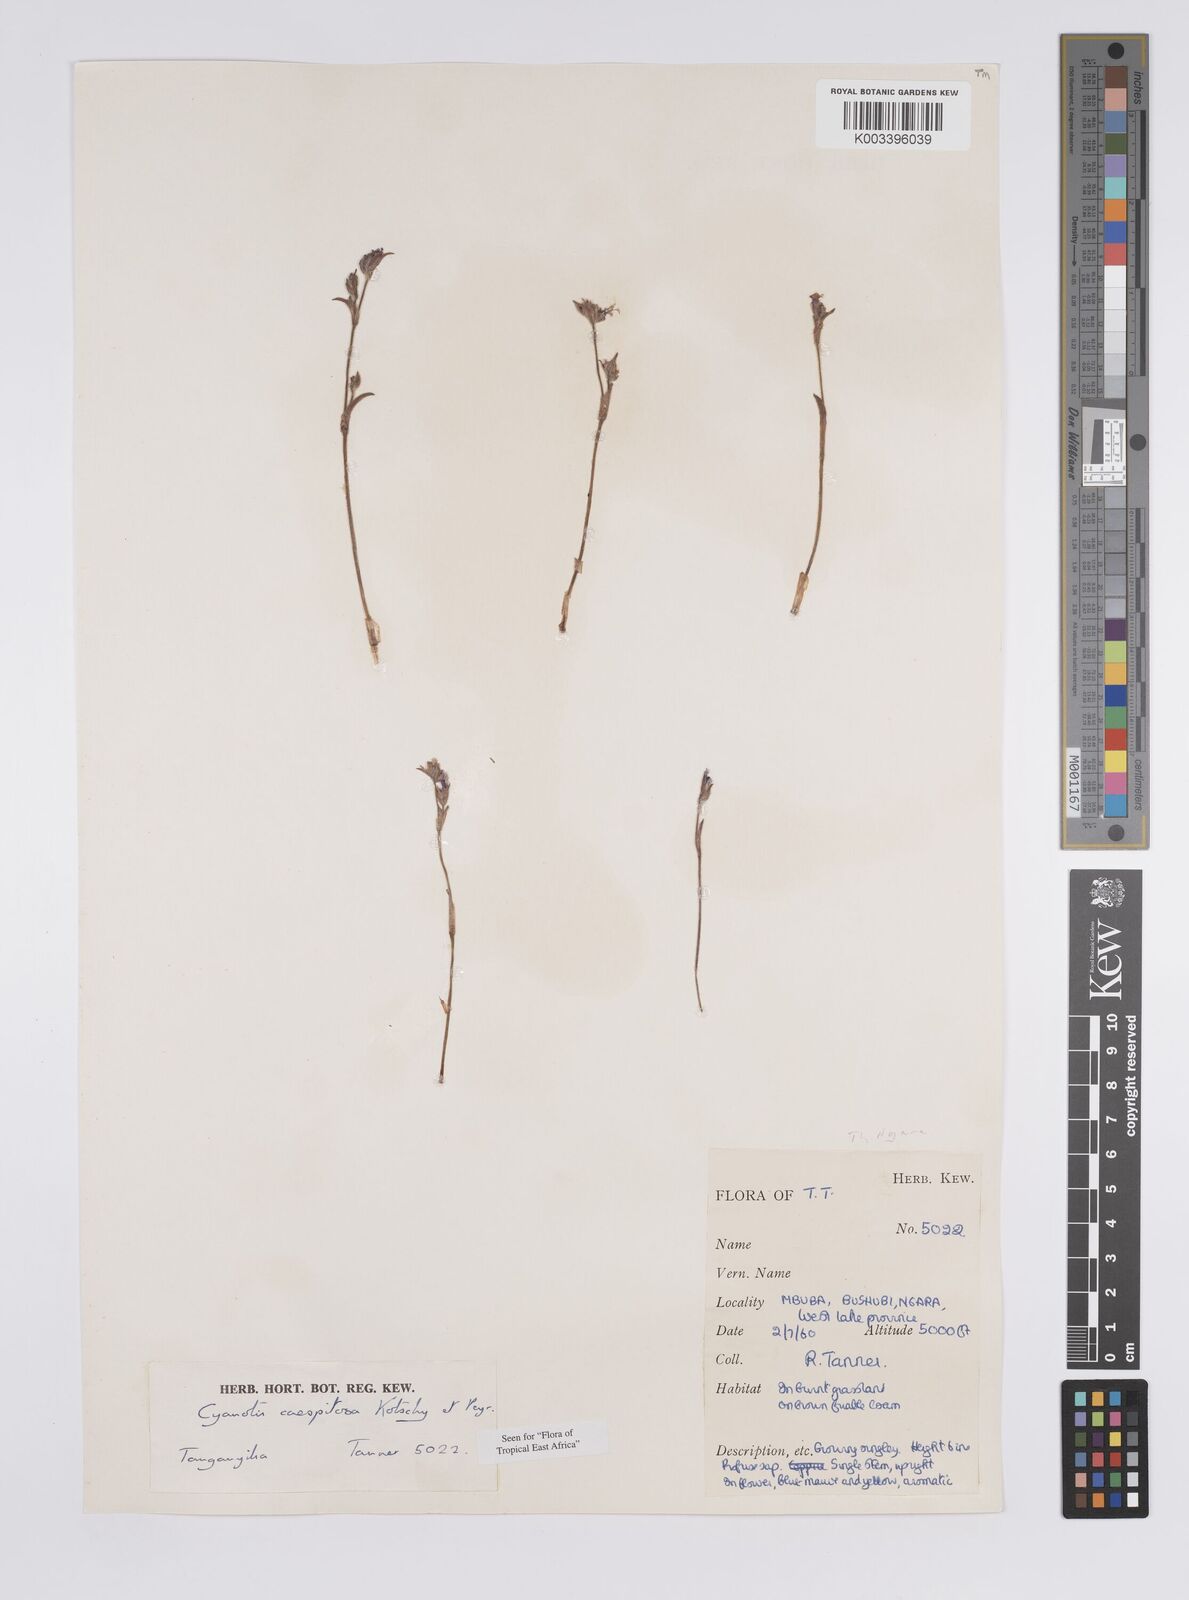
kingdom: Plantae
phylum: Tracheophyta
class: Liliopsida
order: Commelinales
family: Commelinaceae
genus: Cyanotis
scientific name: Cyanotis caespitosa
